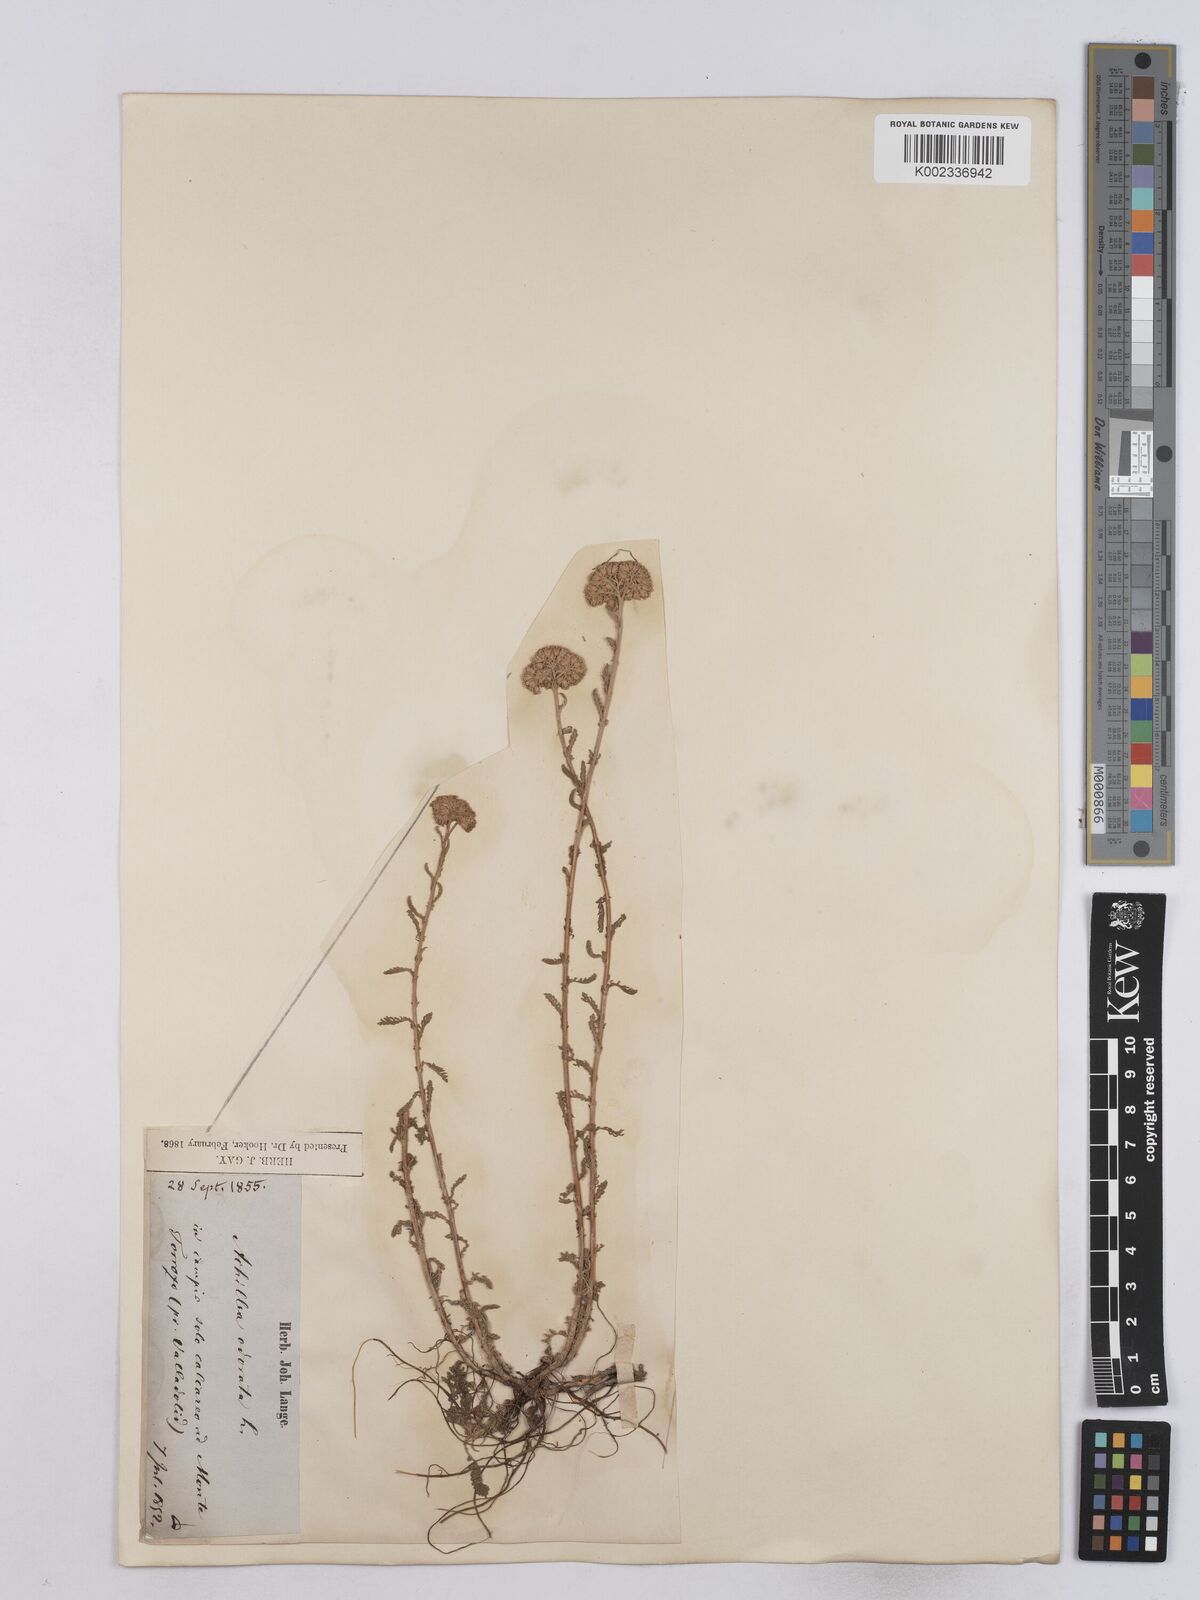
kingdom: Plantae
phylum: Tracheophyta
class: Magnoliopsida
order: Asterales
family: Asteraceae
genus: Achillea
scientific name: Achillea odorata
